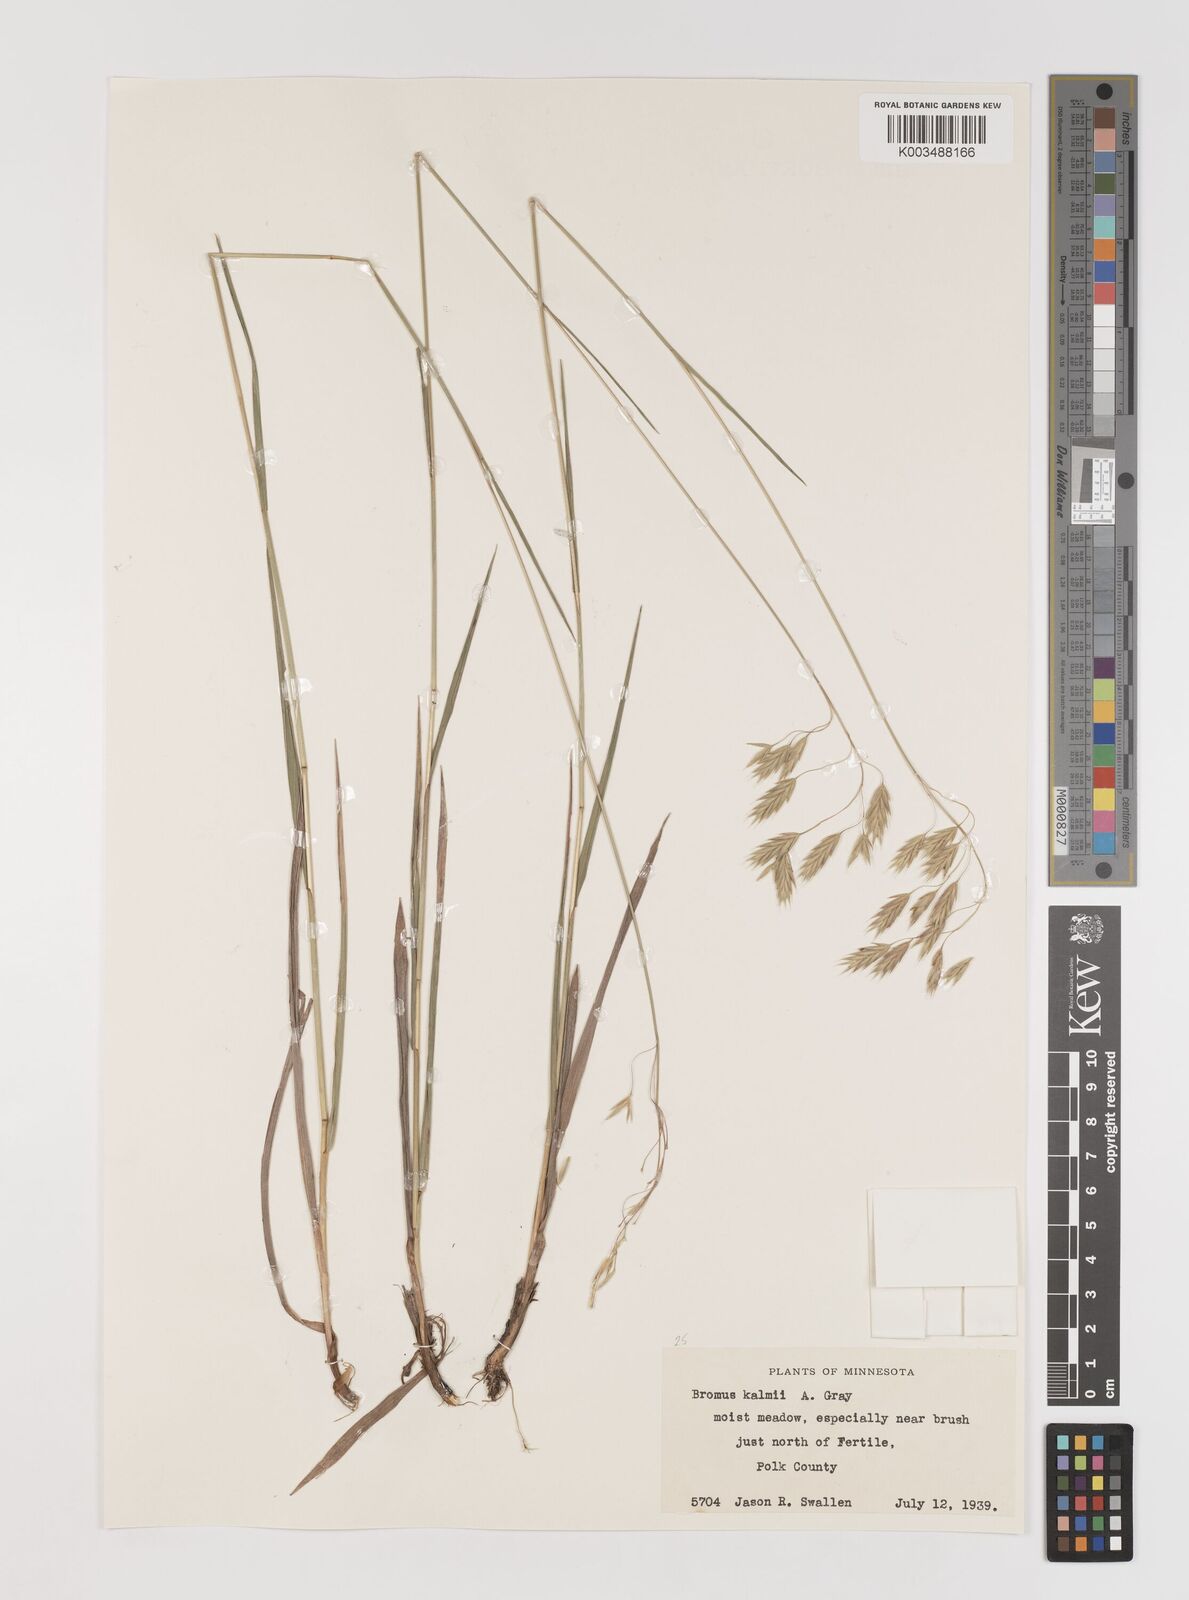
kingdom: Plantae
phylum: Tracheophyta
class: Liliopsida
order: Poales
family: Poaceae
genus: Bromus
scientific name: Bromus kalmii
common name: Kalm brome
